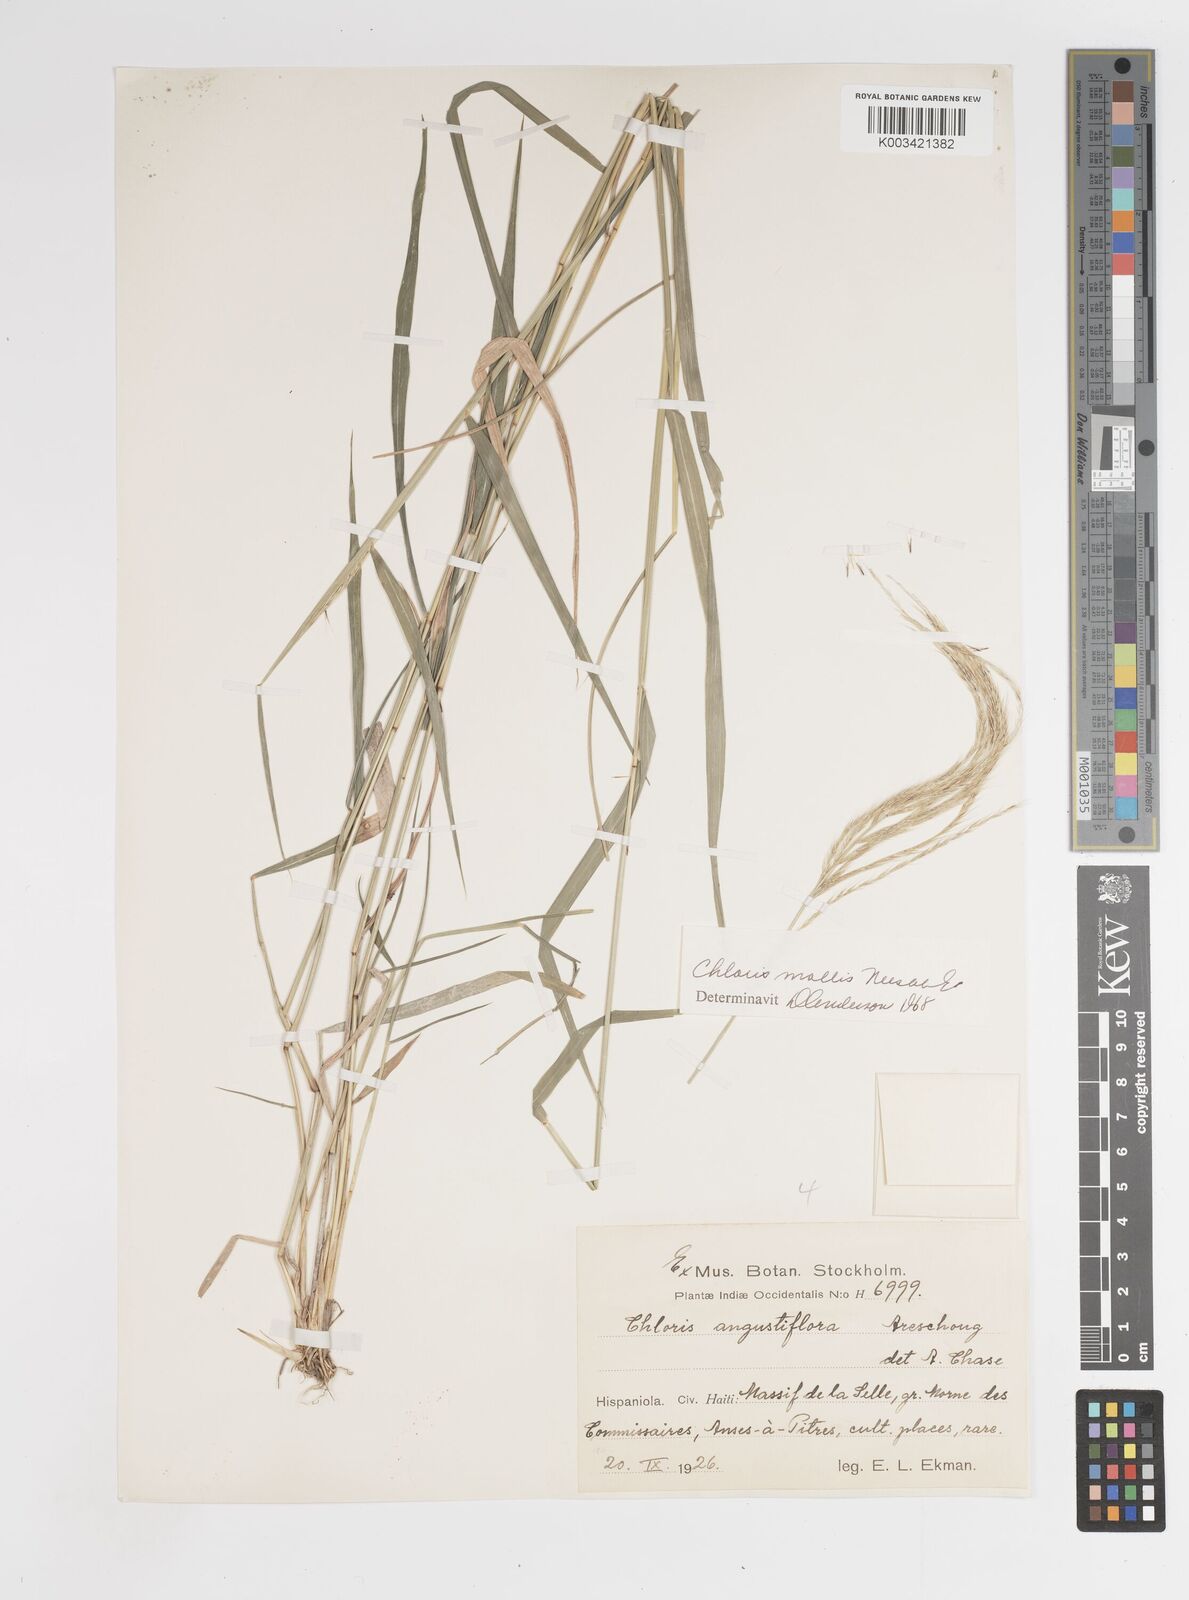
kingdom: Plantae
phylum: Tracheophyta
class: Liliopsida
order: Poales
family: Poaceae
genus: Leptochloa
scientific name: Leptochloa anisopoda
